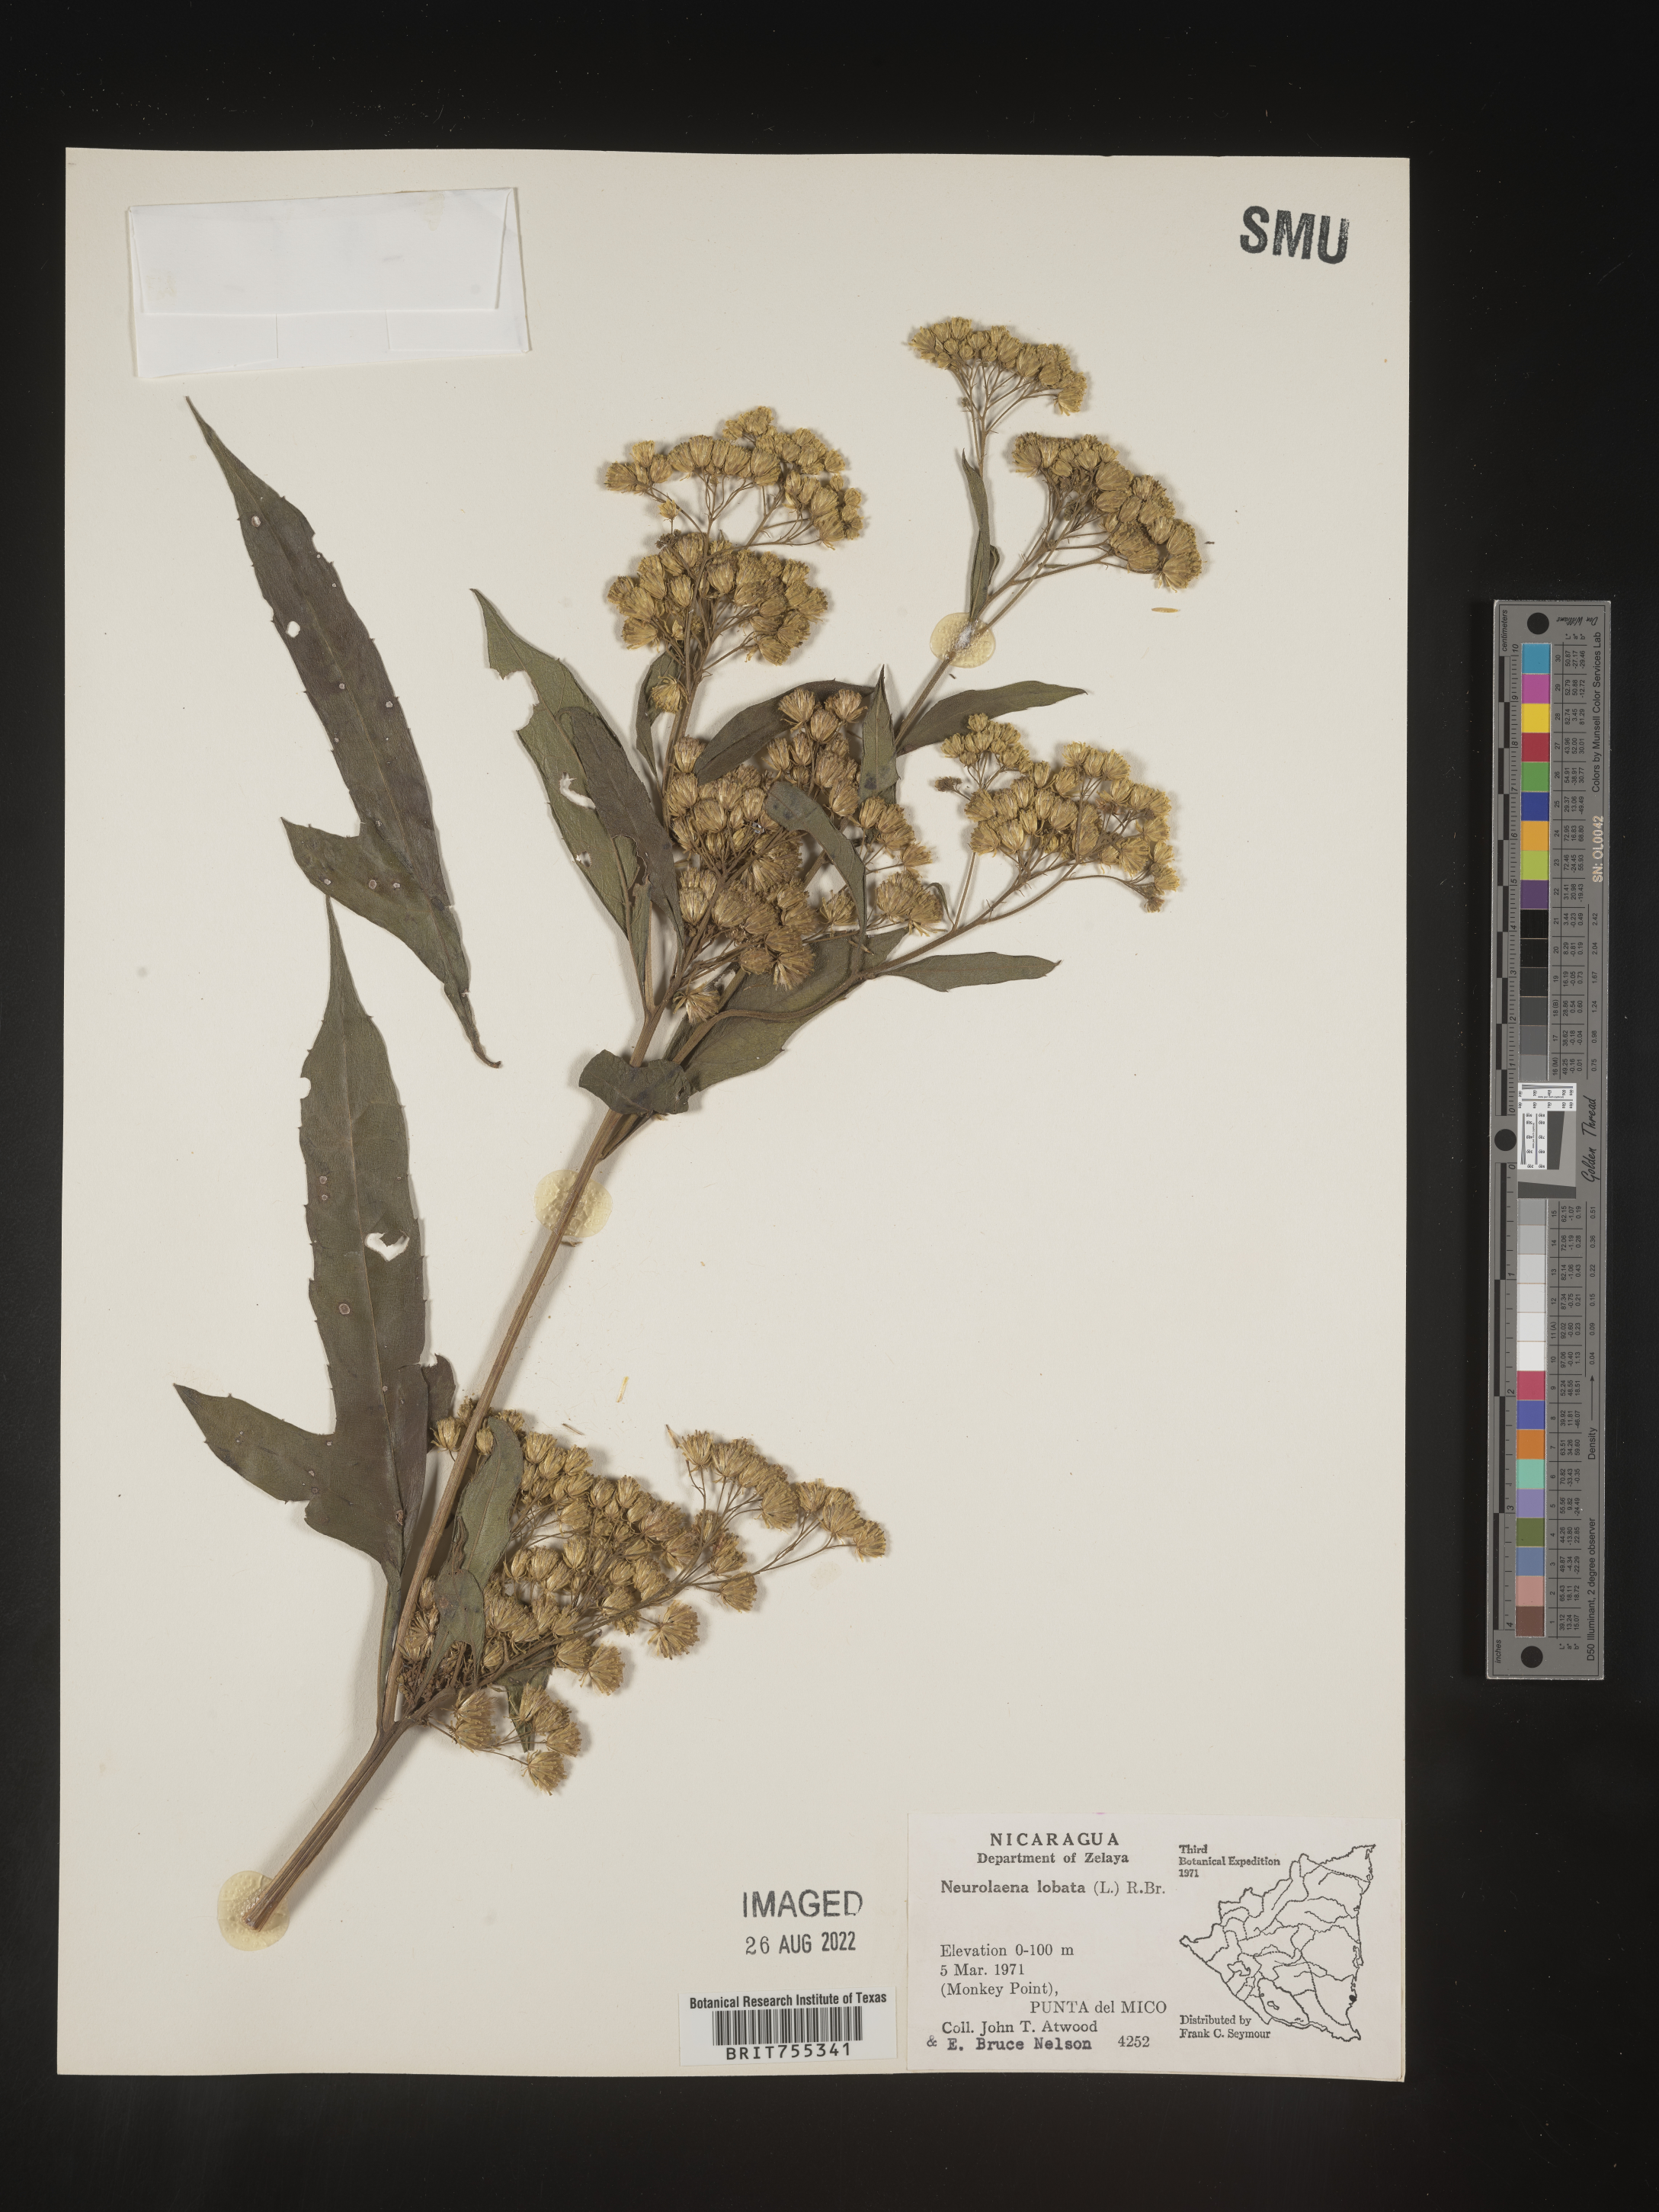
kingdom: Plantae
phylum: Tracheophyta
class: Magnoliopsida
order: Asterales
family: Asteraceae
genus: Neurolaena
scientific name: Neurolaena
